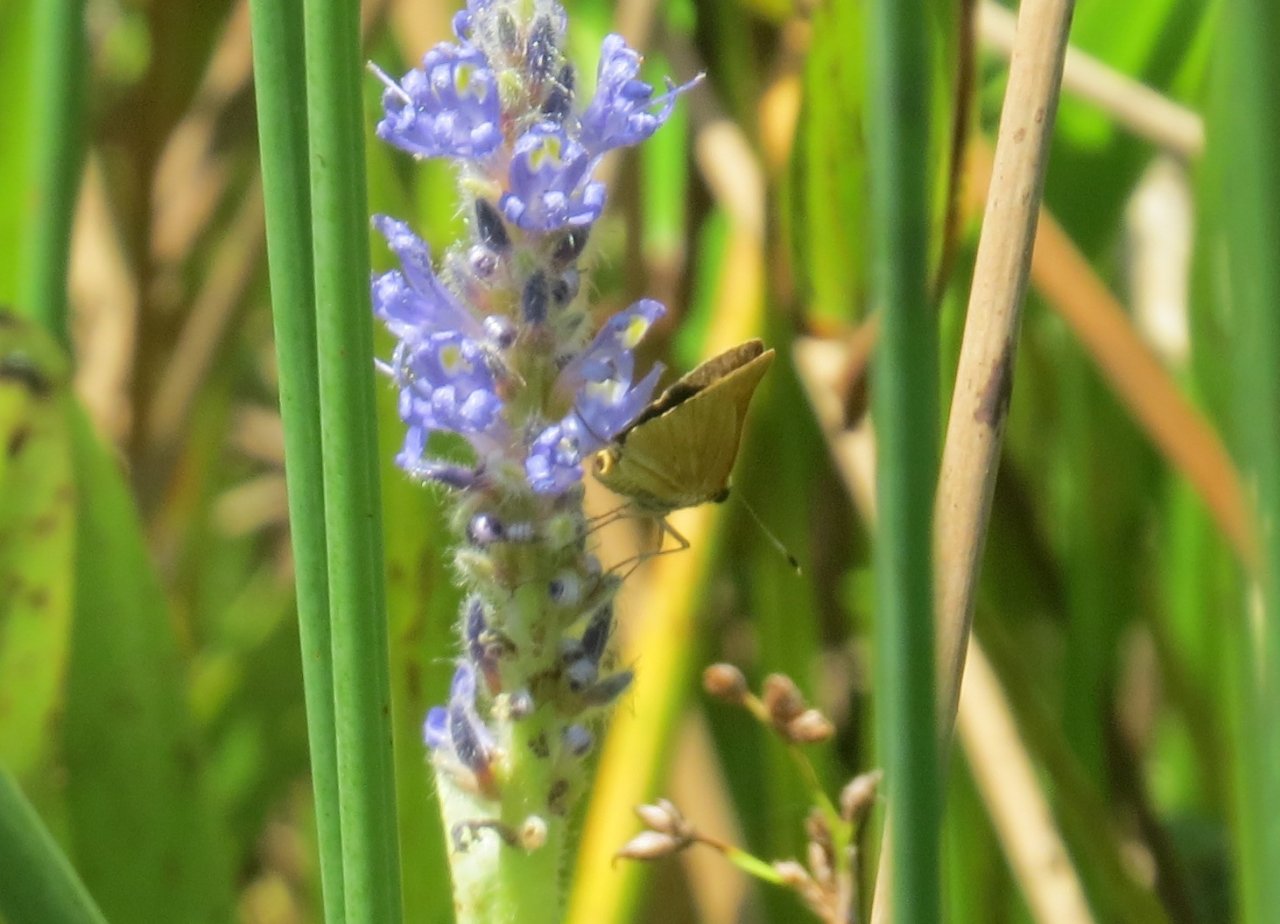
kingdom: Animalia
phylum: Arthropoda
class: Insecta
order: Lepidoptera
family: Hesperiidae
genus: Problema
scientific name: Problema bulenta
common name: Rare Skipper
